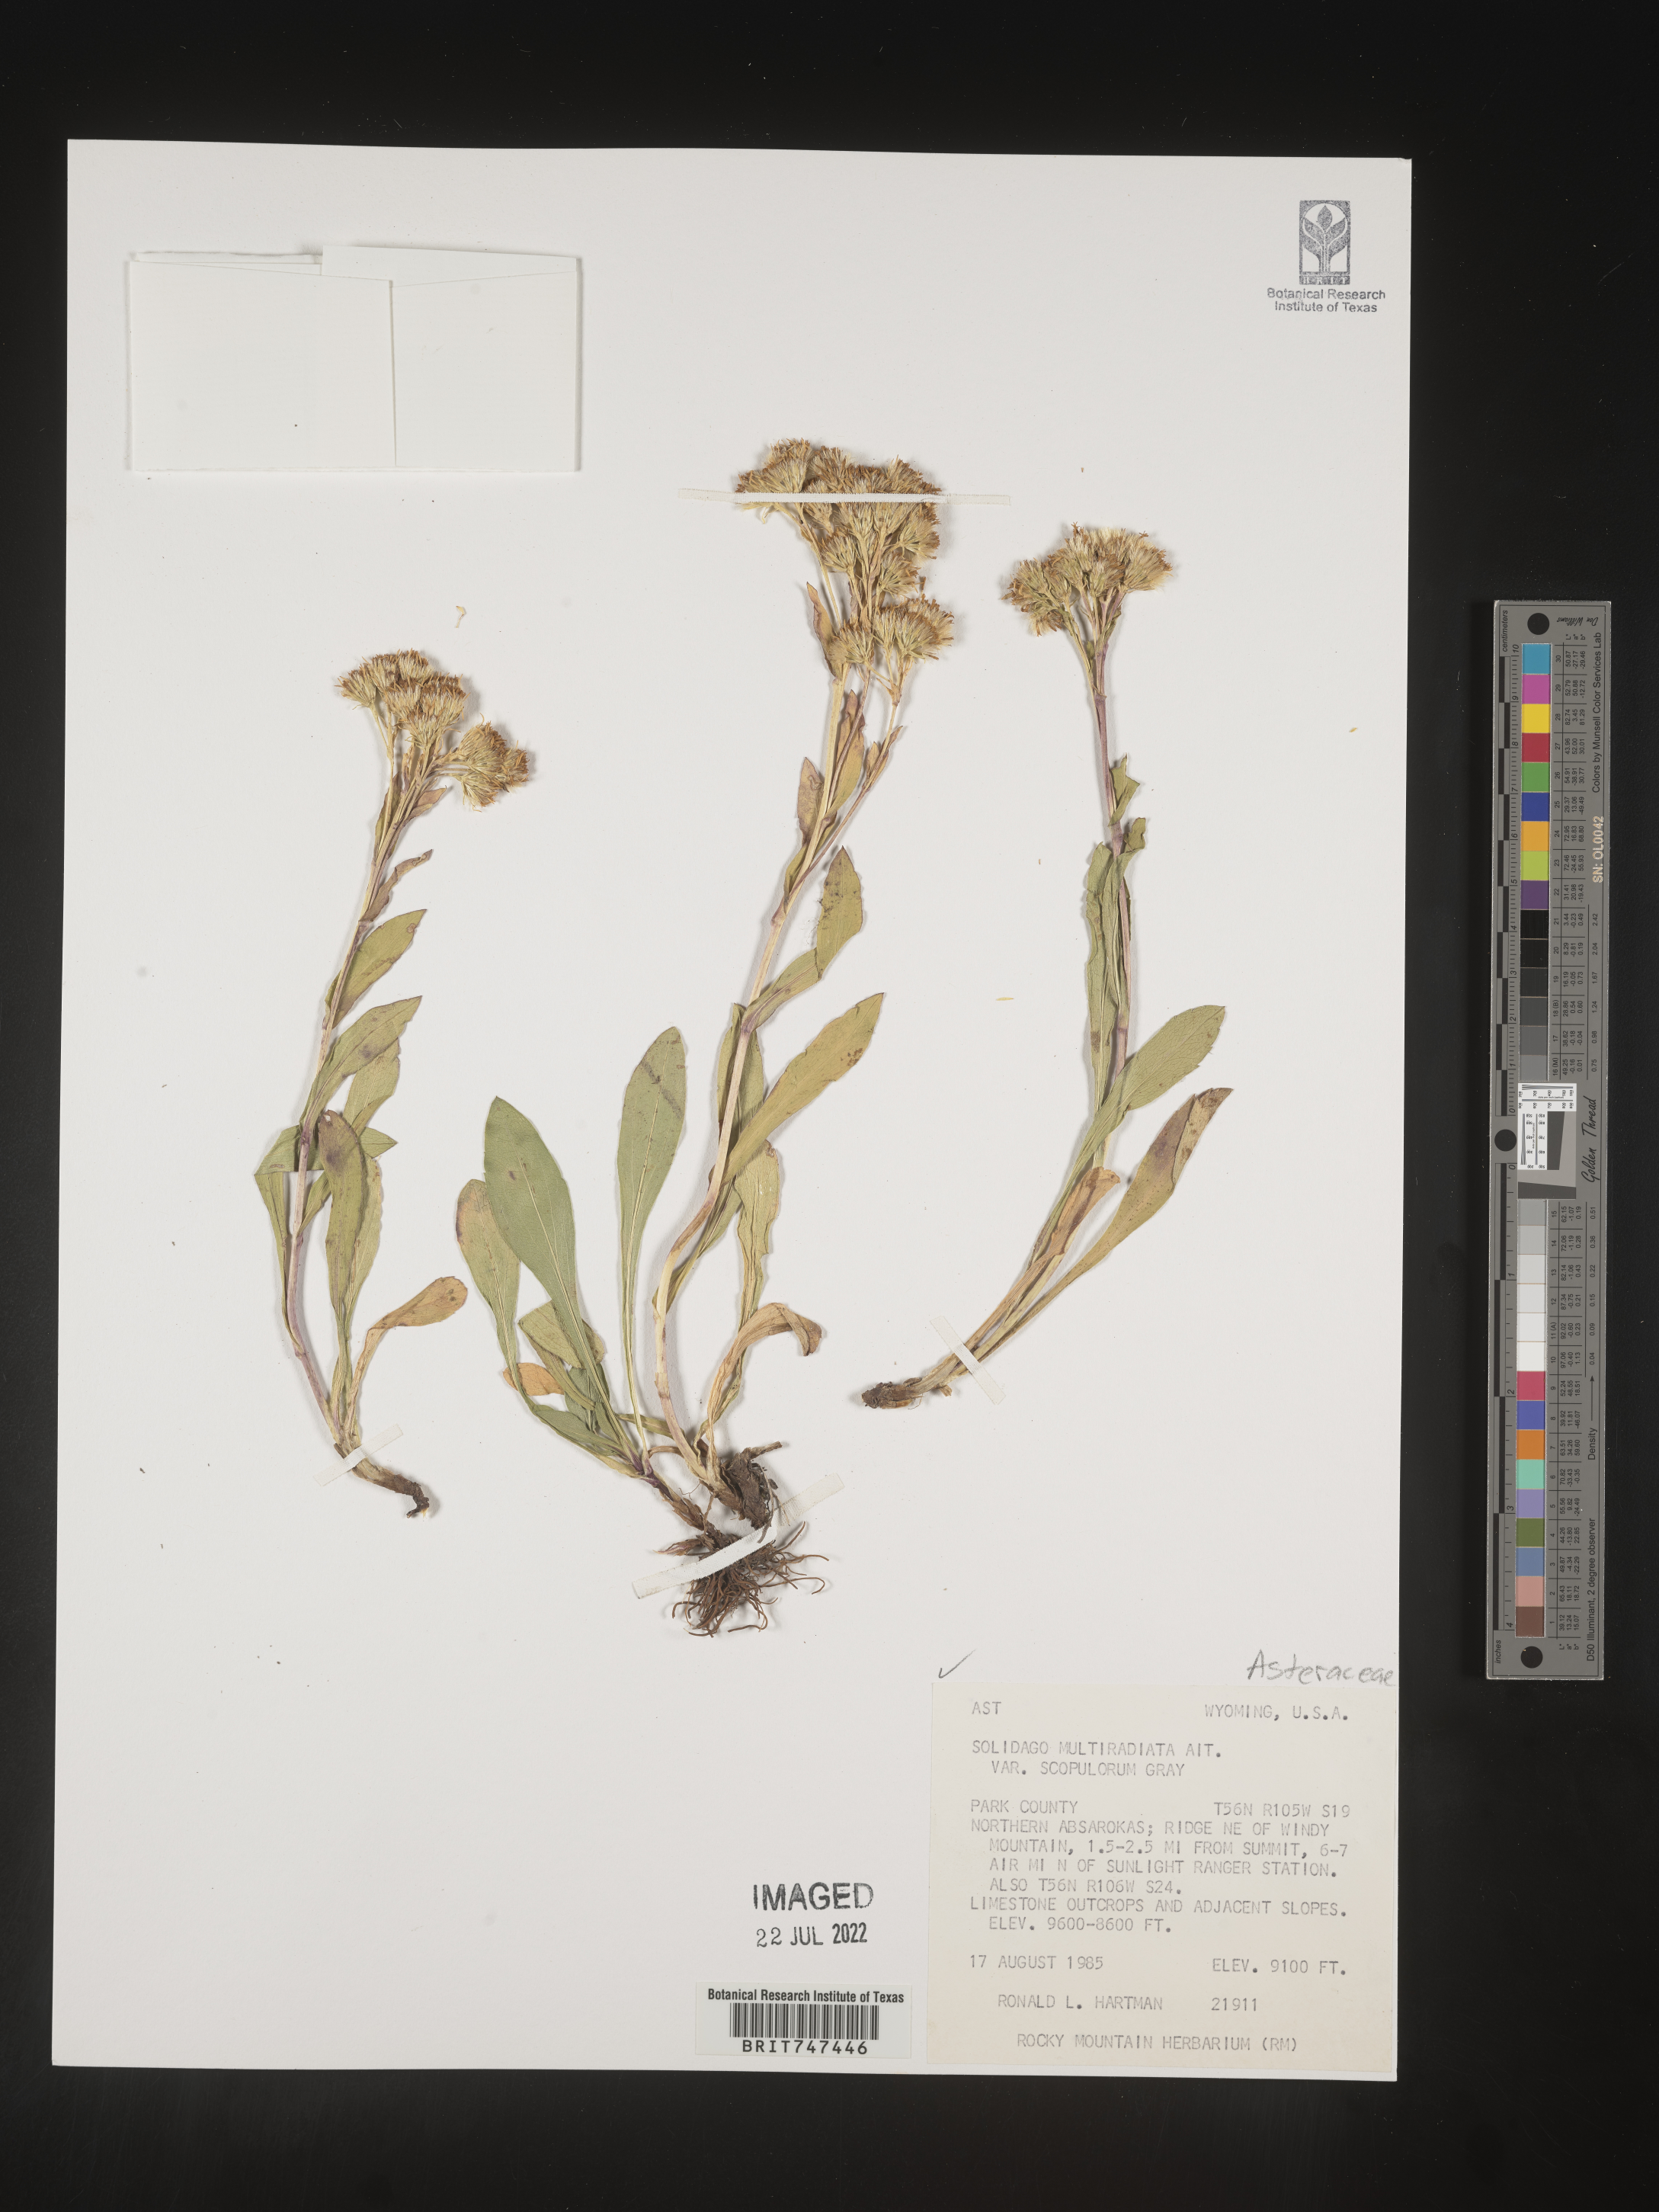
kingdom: Plantae
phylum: Tracheophyta
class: Magnoliopsida
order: Asterales
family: Asteraceae
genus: Solidago
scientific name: Solidago multiradiata
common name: Northern goldenrod
